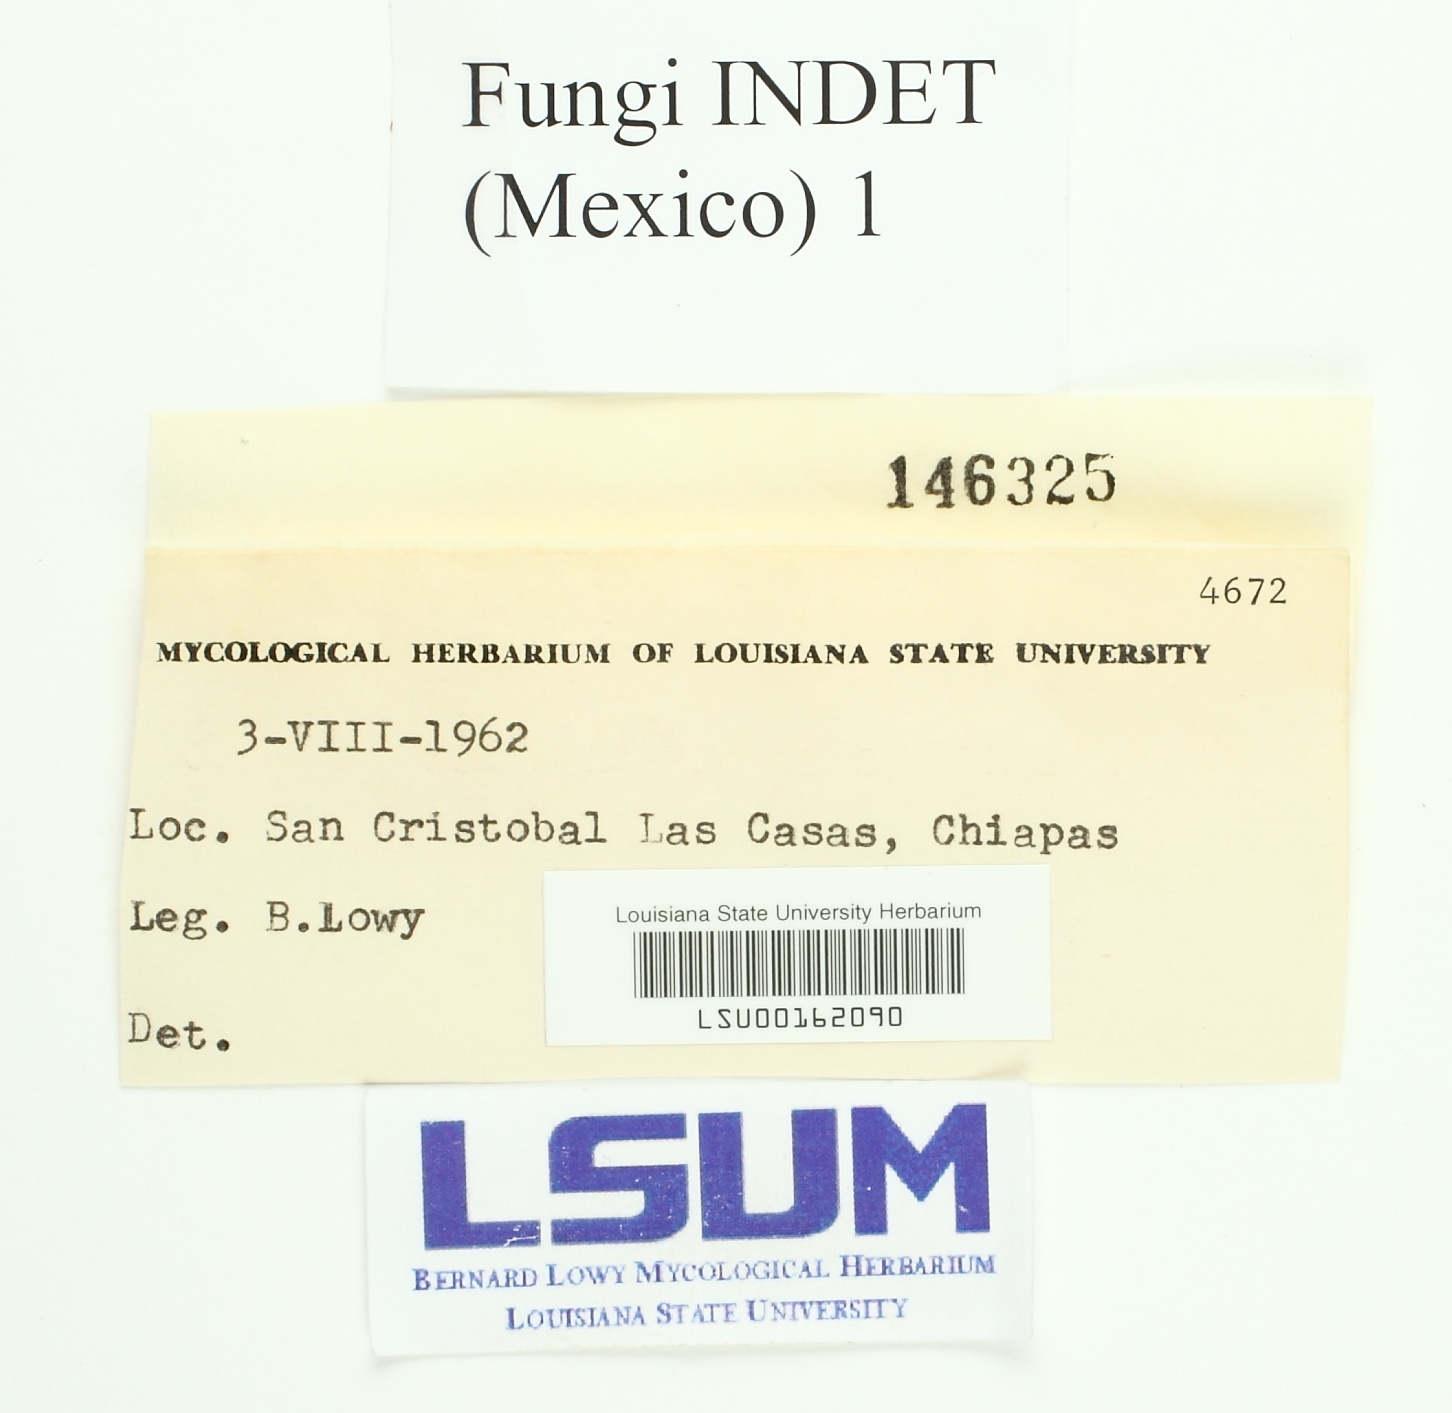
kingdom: Fungi
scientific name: Fungi
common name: Fungi
